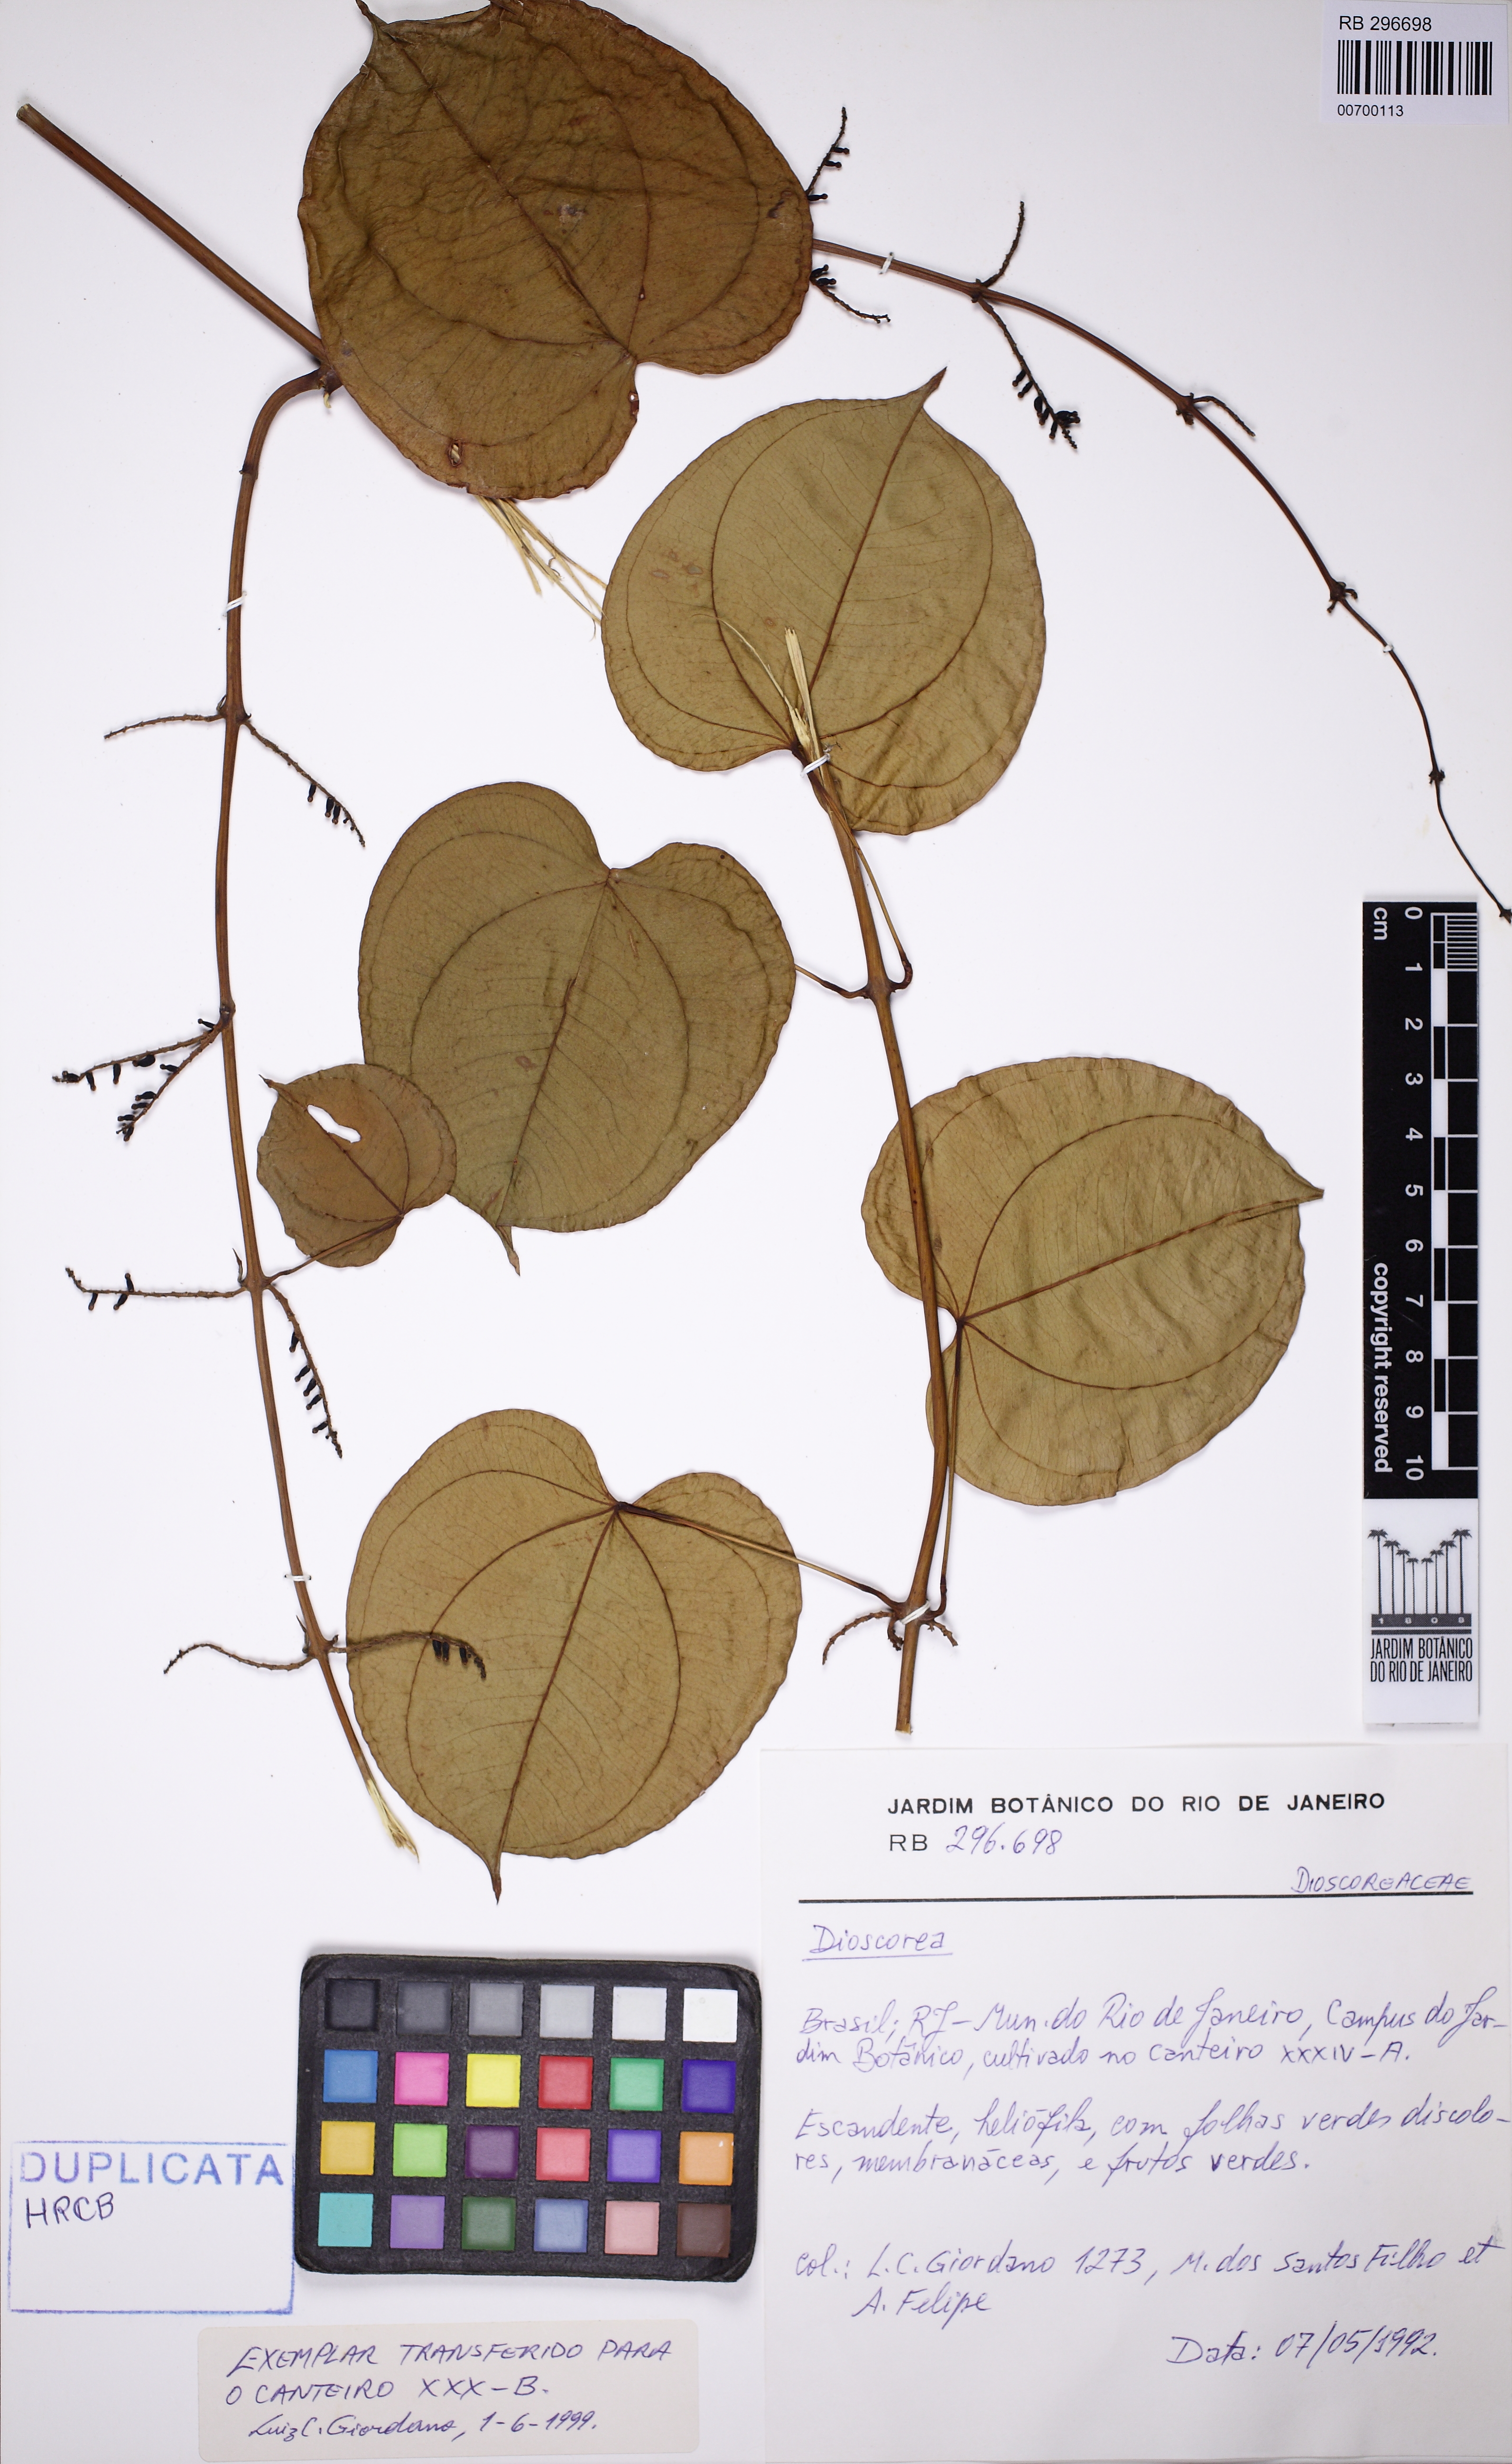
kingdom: Plantae
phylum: Tracheophyta
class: Liliopsida
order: Dioscoreales
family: Dioscoreaceae
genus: Dioscorea
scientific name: Dioscorea
